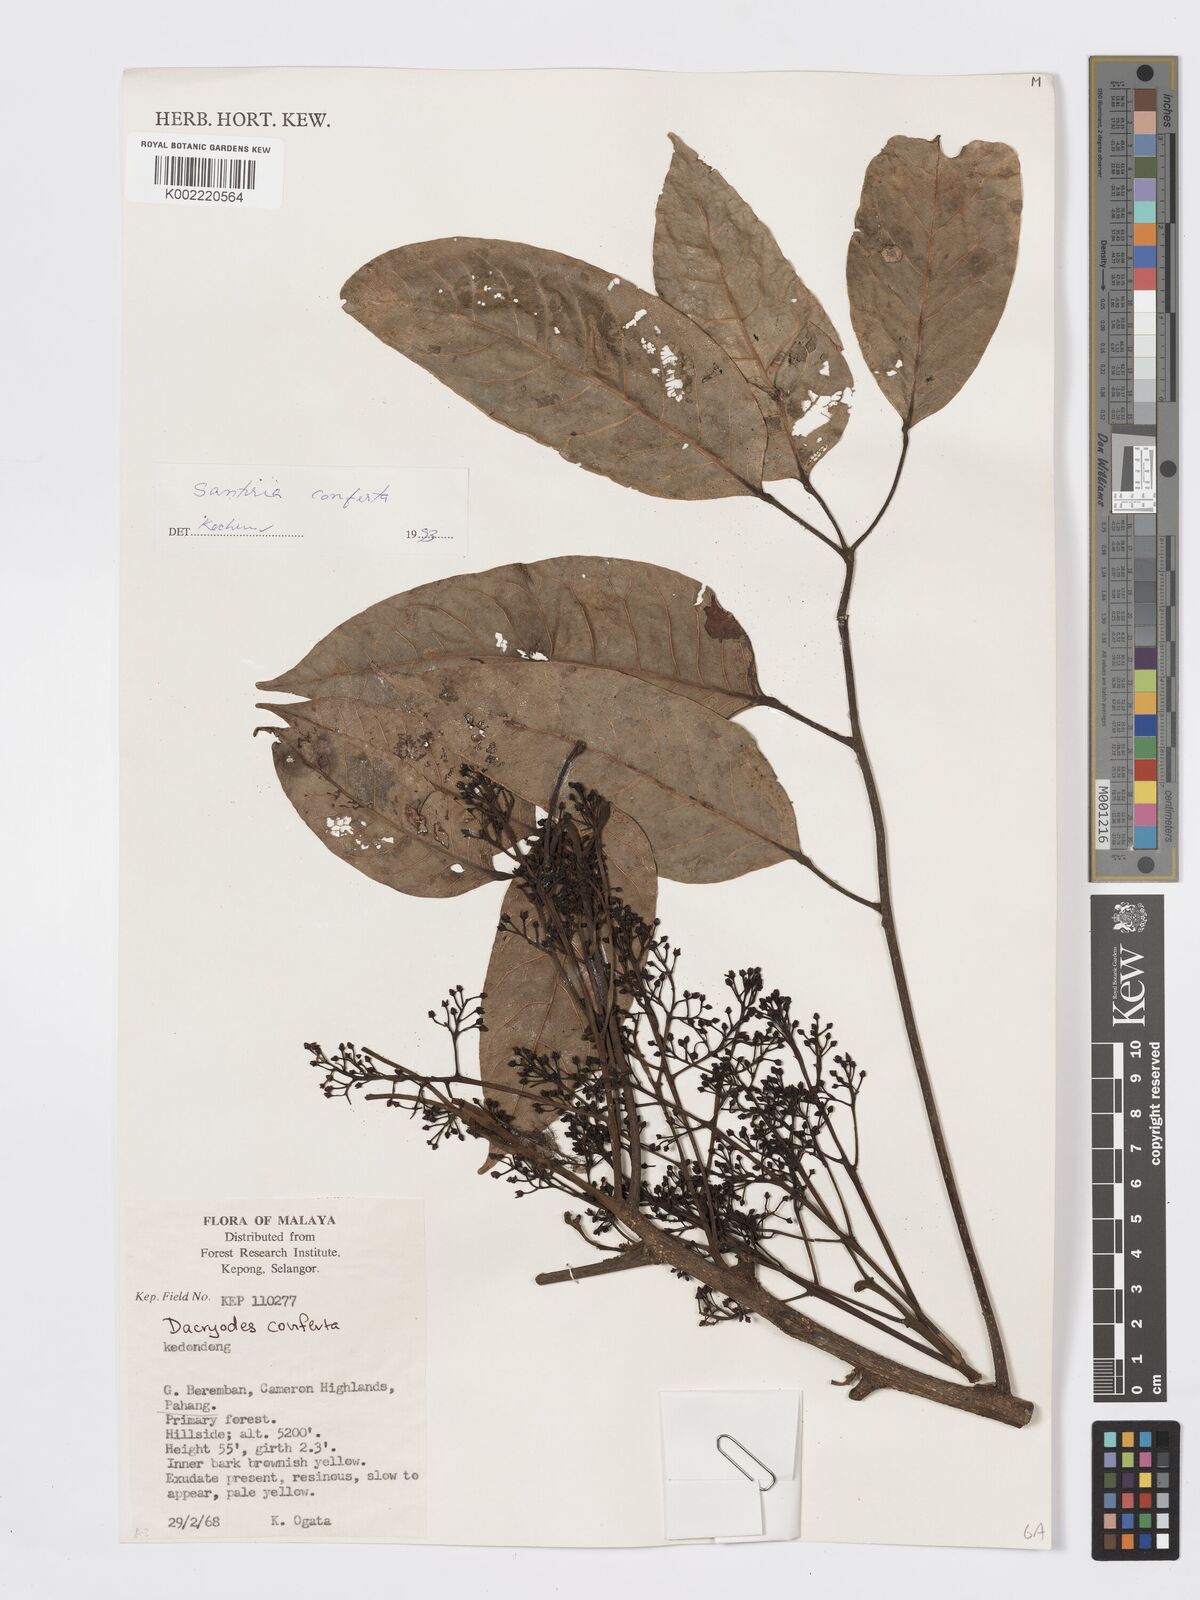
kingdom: Plantae
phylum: Tracheophyta
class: Magnoliopsida
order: Sapindales
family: Burseraceae
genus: Santiria
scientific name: Santiria conferta
